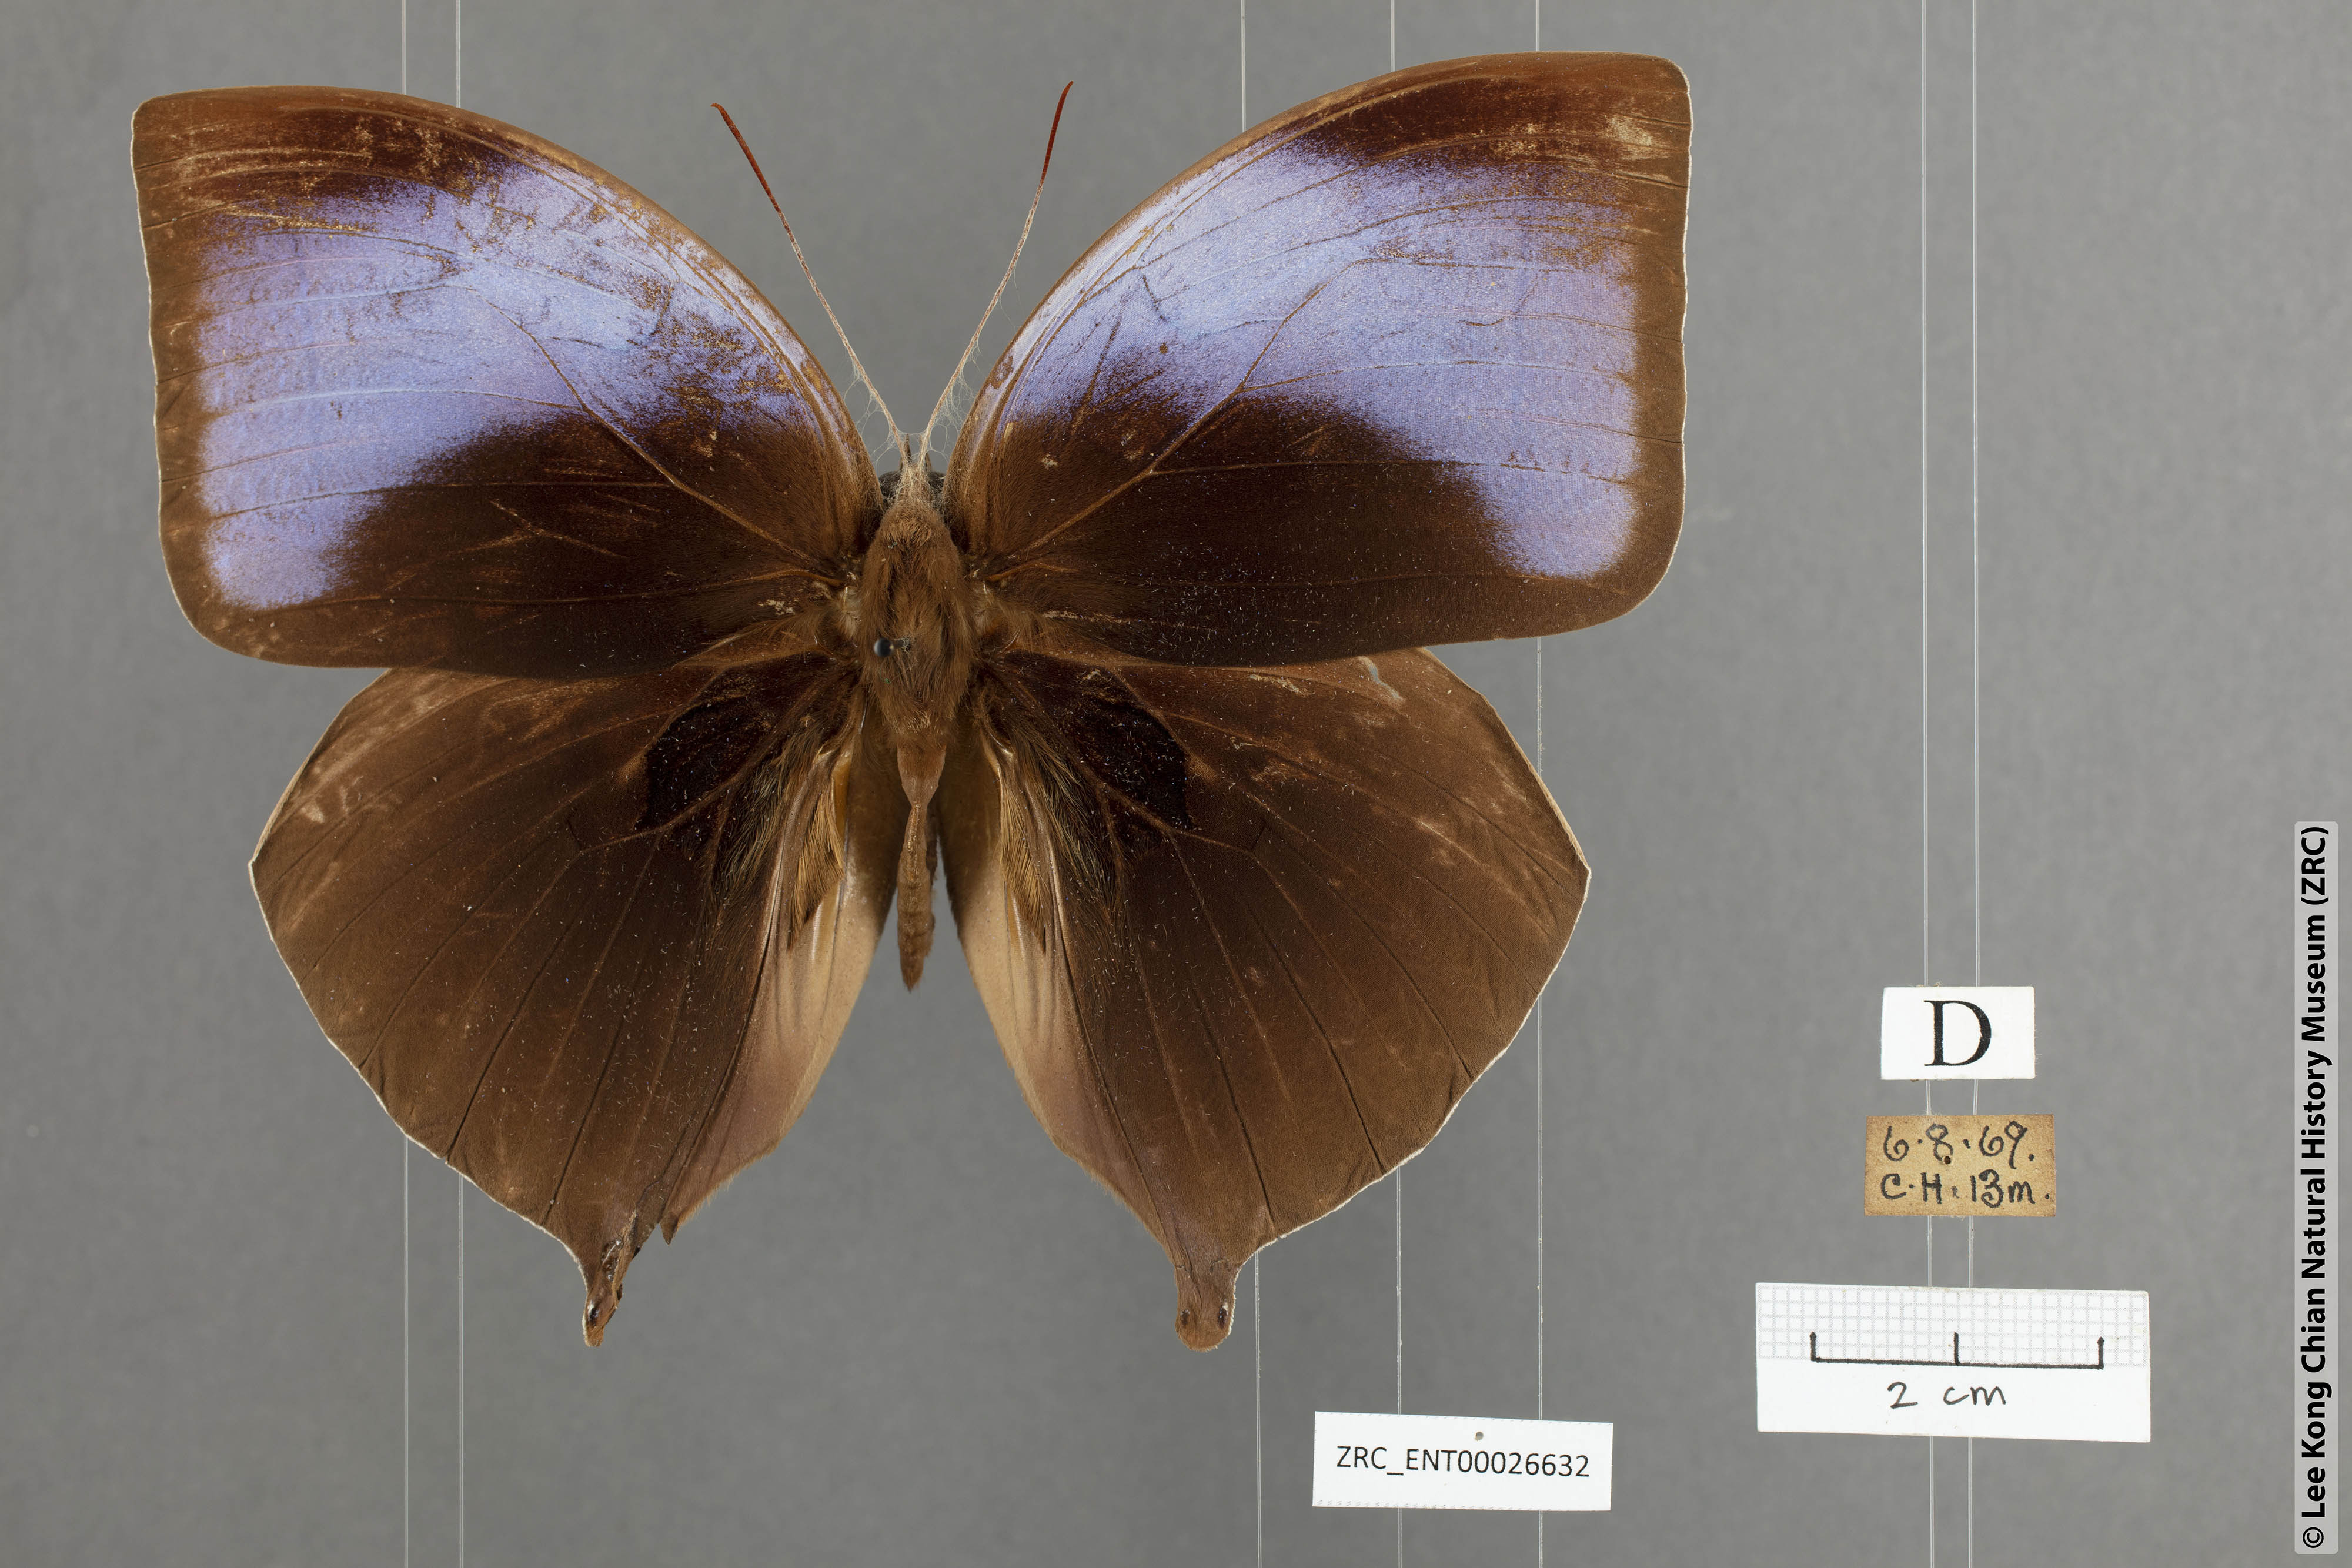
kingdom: Animalia
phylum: Arthropoda
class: Insecta
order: Lepidoptera
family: Nymphalidae
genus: Amathuxidia
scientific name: Amathuxidia amythaon
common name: Koh-i-noor
